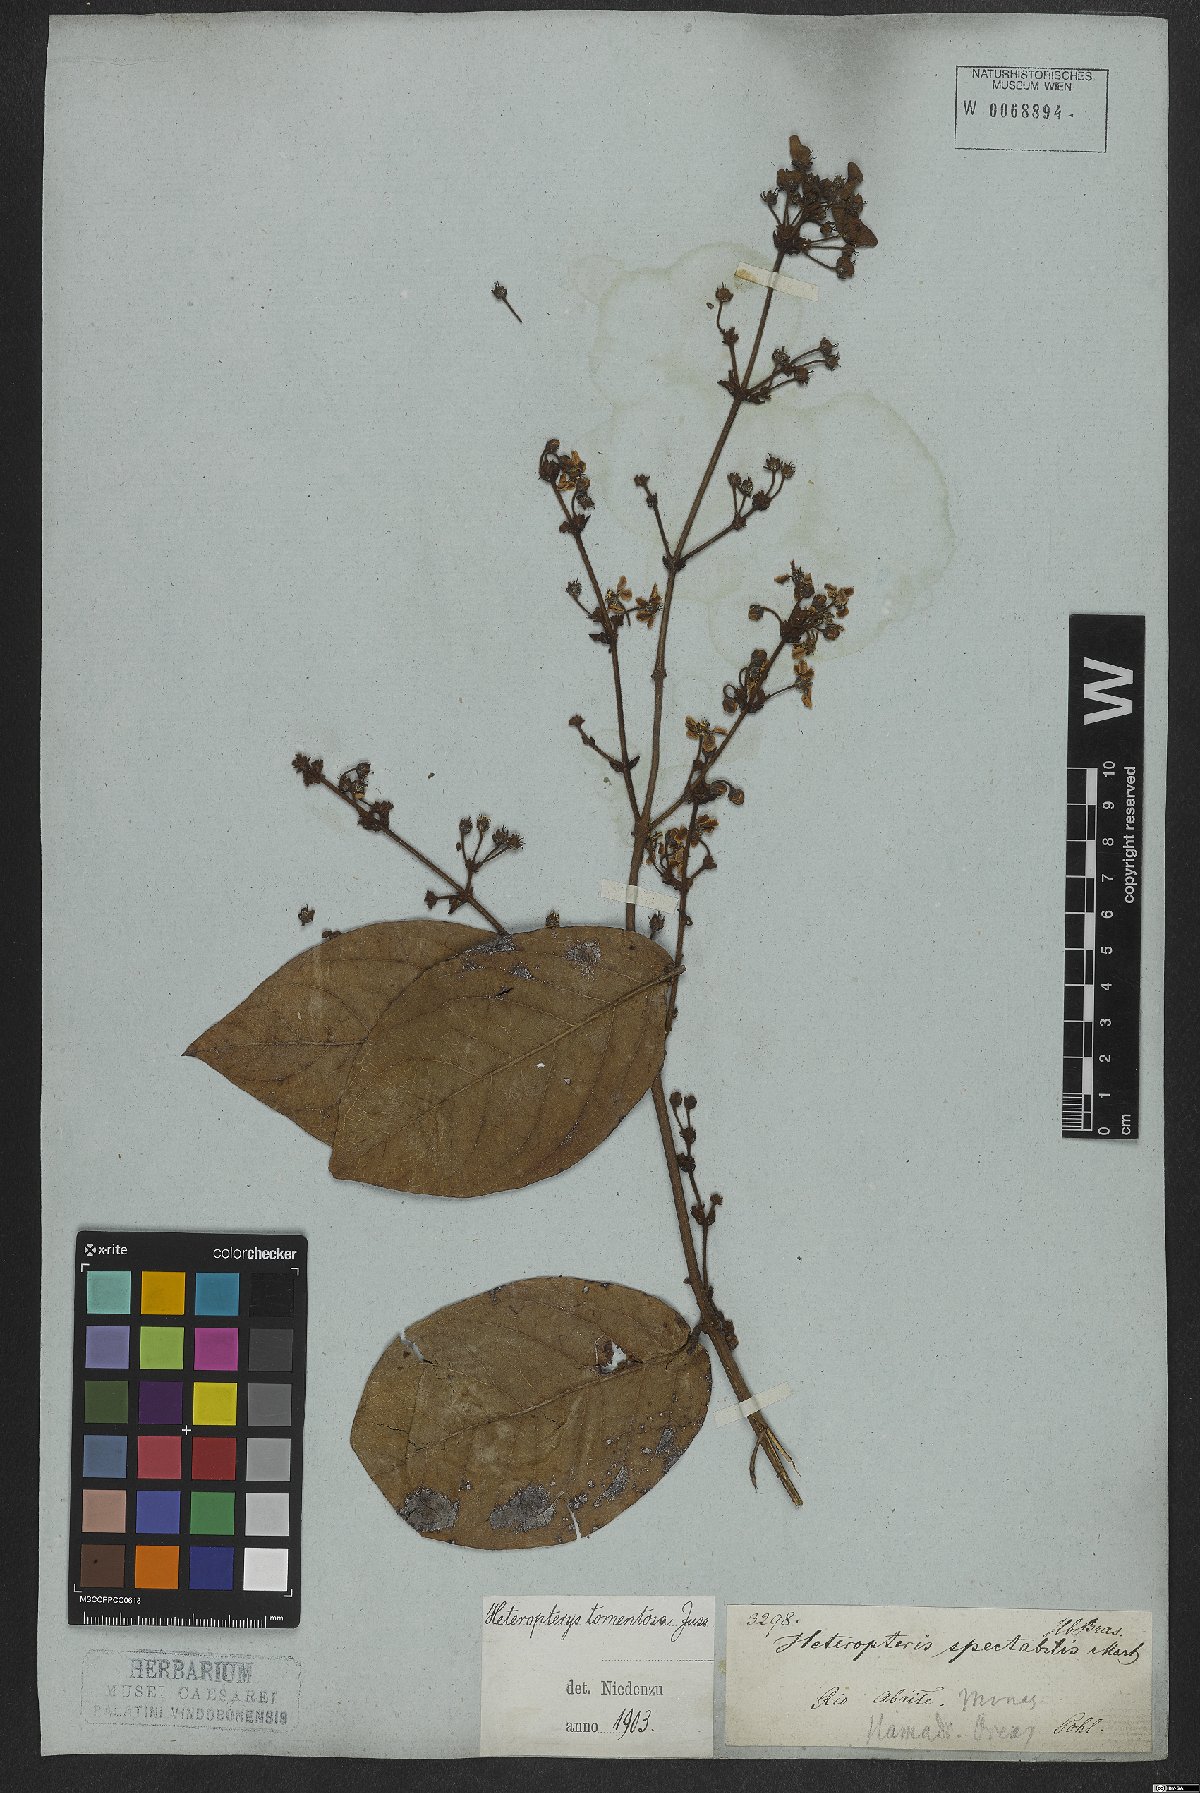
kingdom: Plantae
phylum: Tracheophyta
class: Magnoliopsida
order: Malpighiales
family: Malpighiaceae
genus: Heteropterys
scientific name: Heteropterys tomentosa
